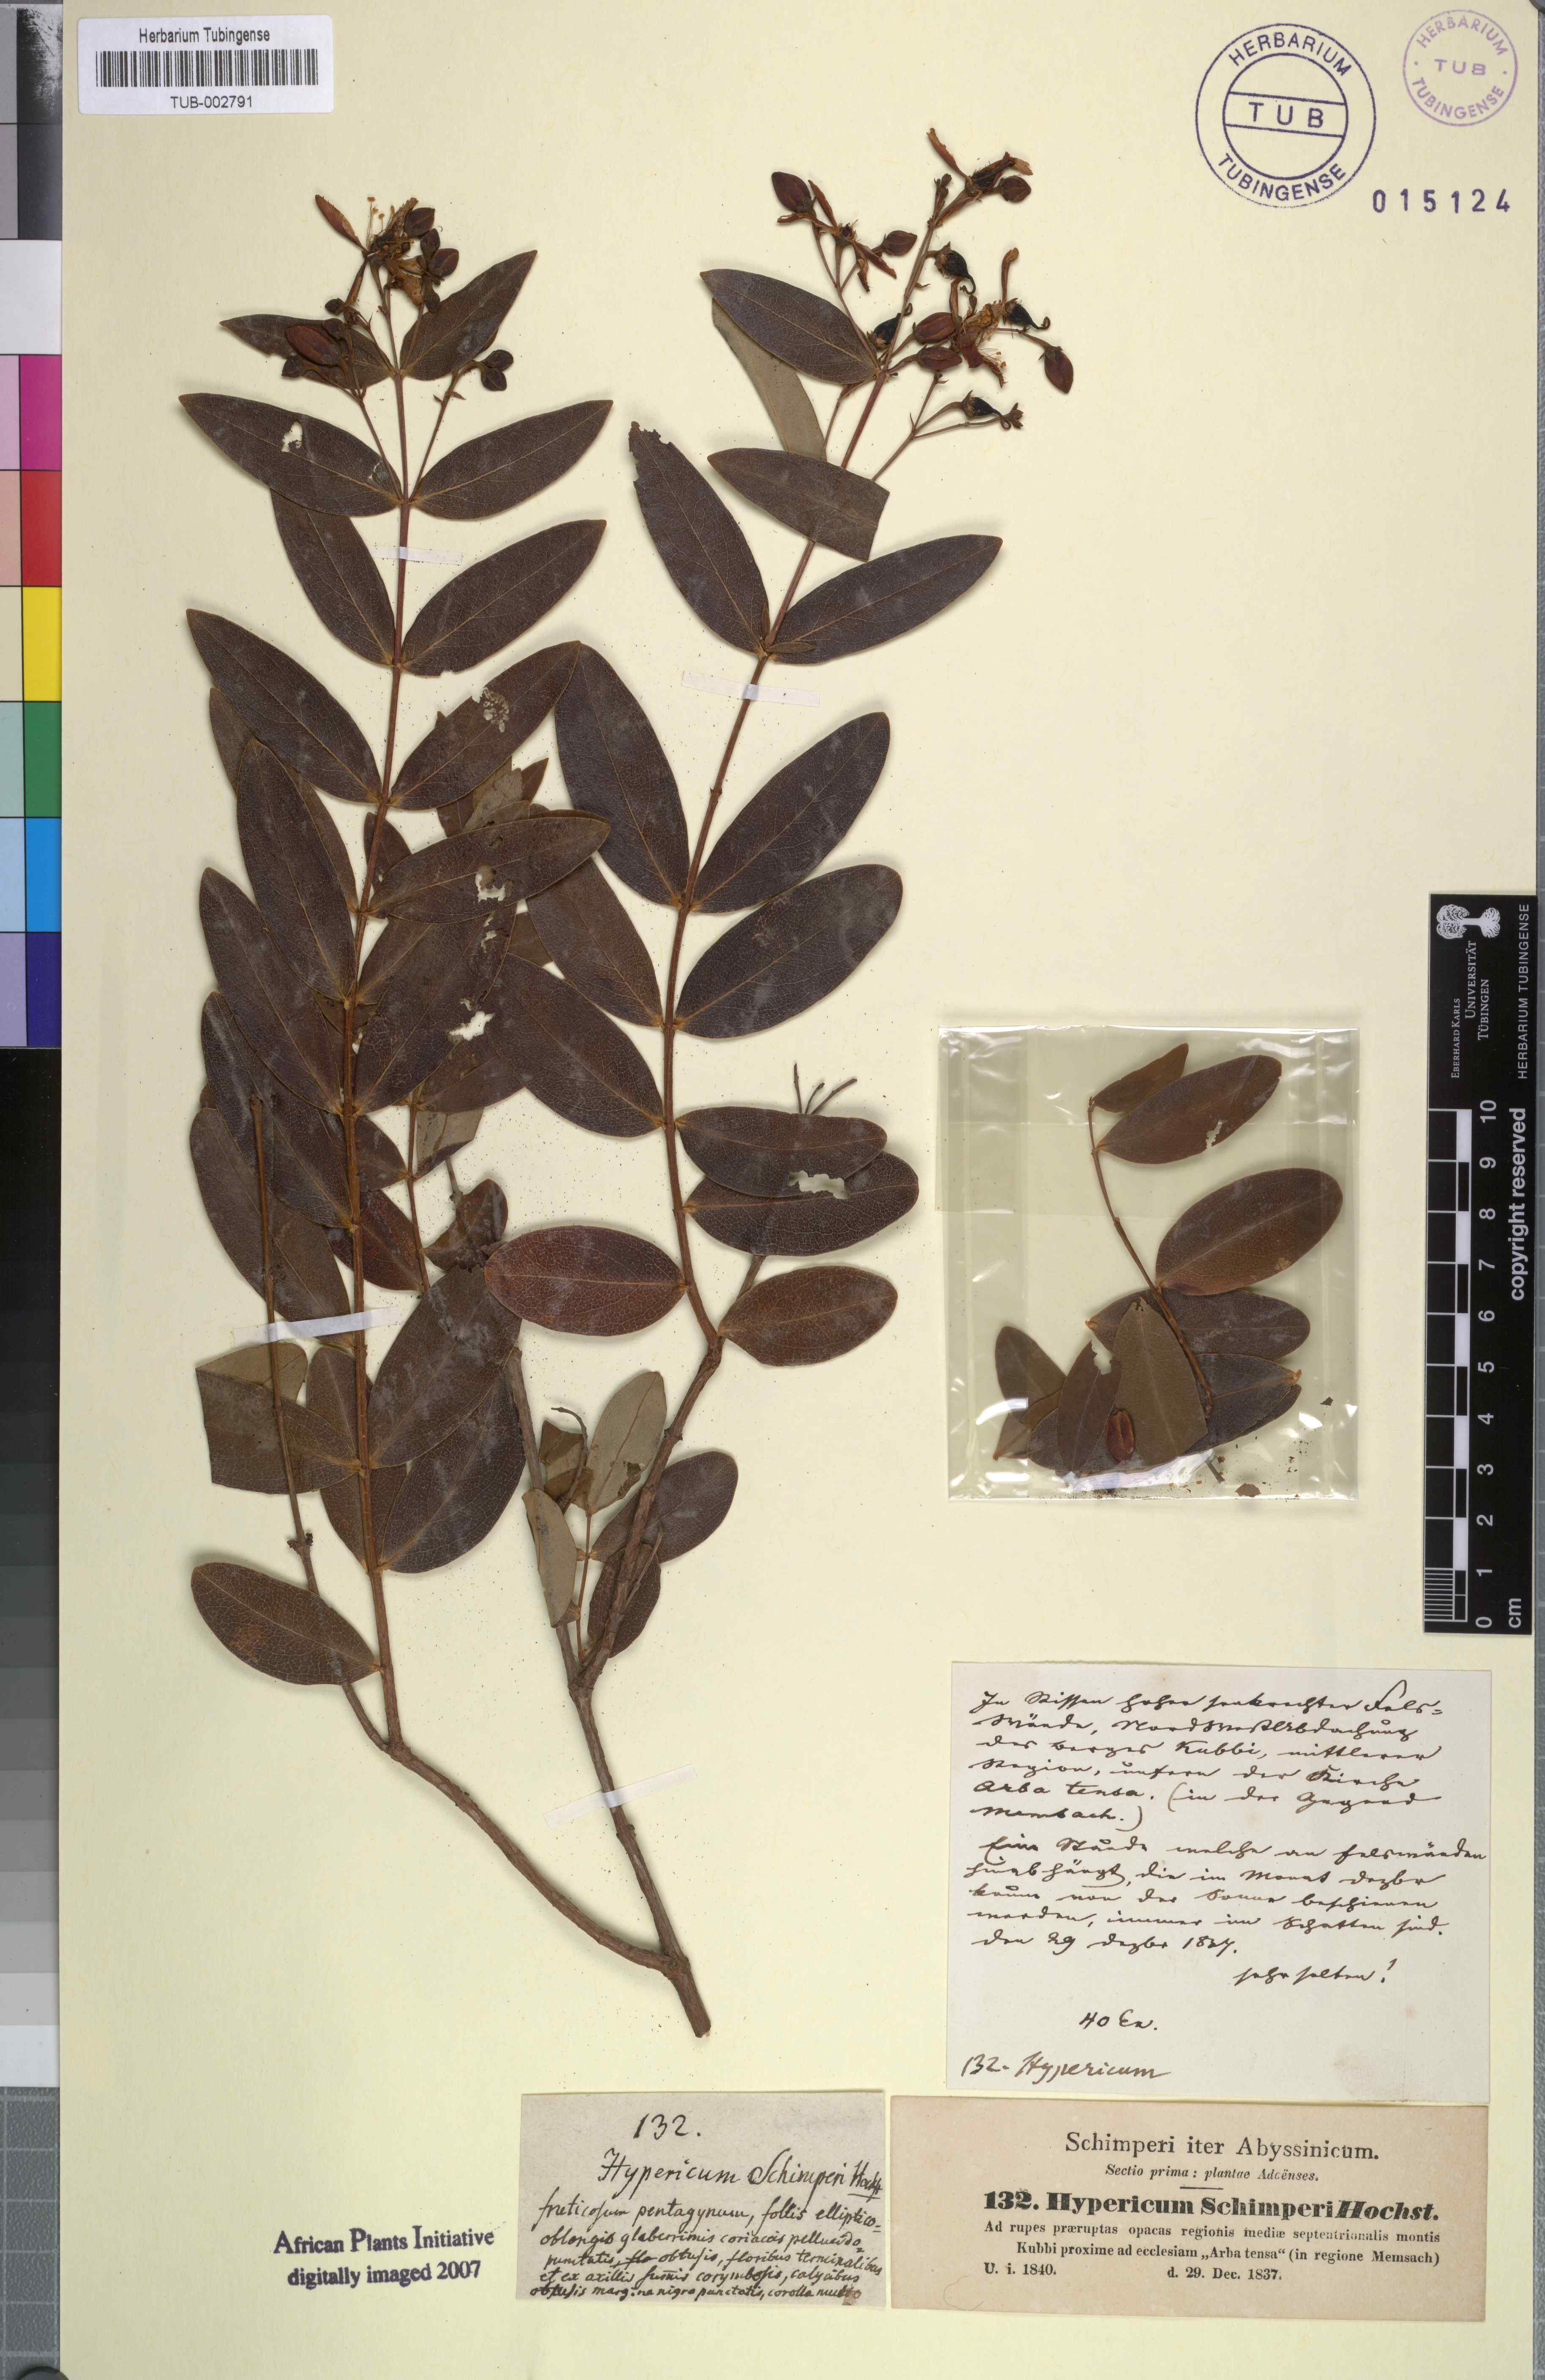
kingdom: Plantae
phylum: Tracheophyta
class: Magnoliopsida
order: Malpighiales
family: Hypericaceae
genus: Hypericum
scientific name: Hypericum roeperianum
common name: Large-leaved curry-bush
